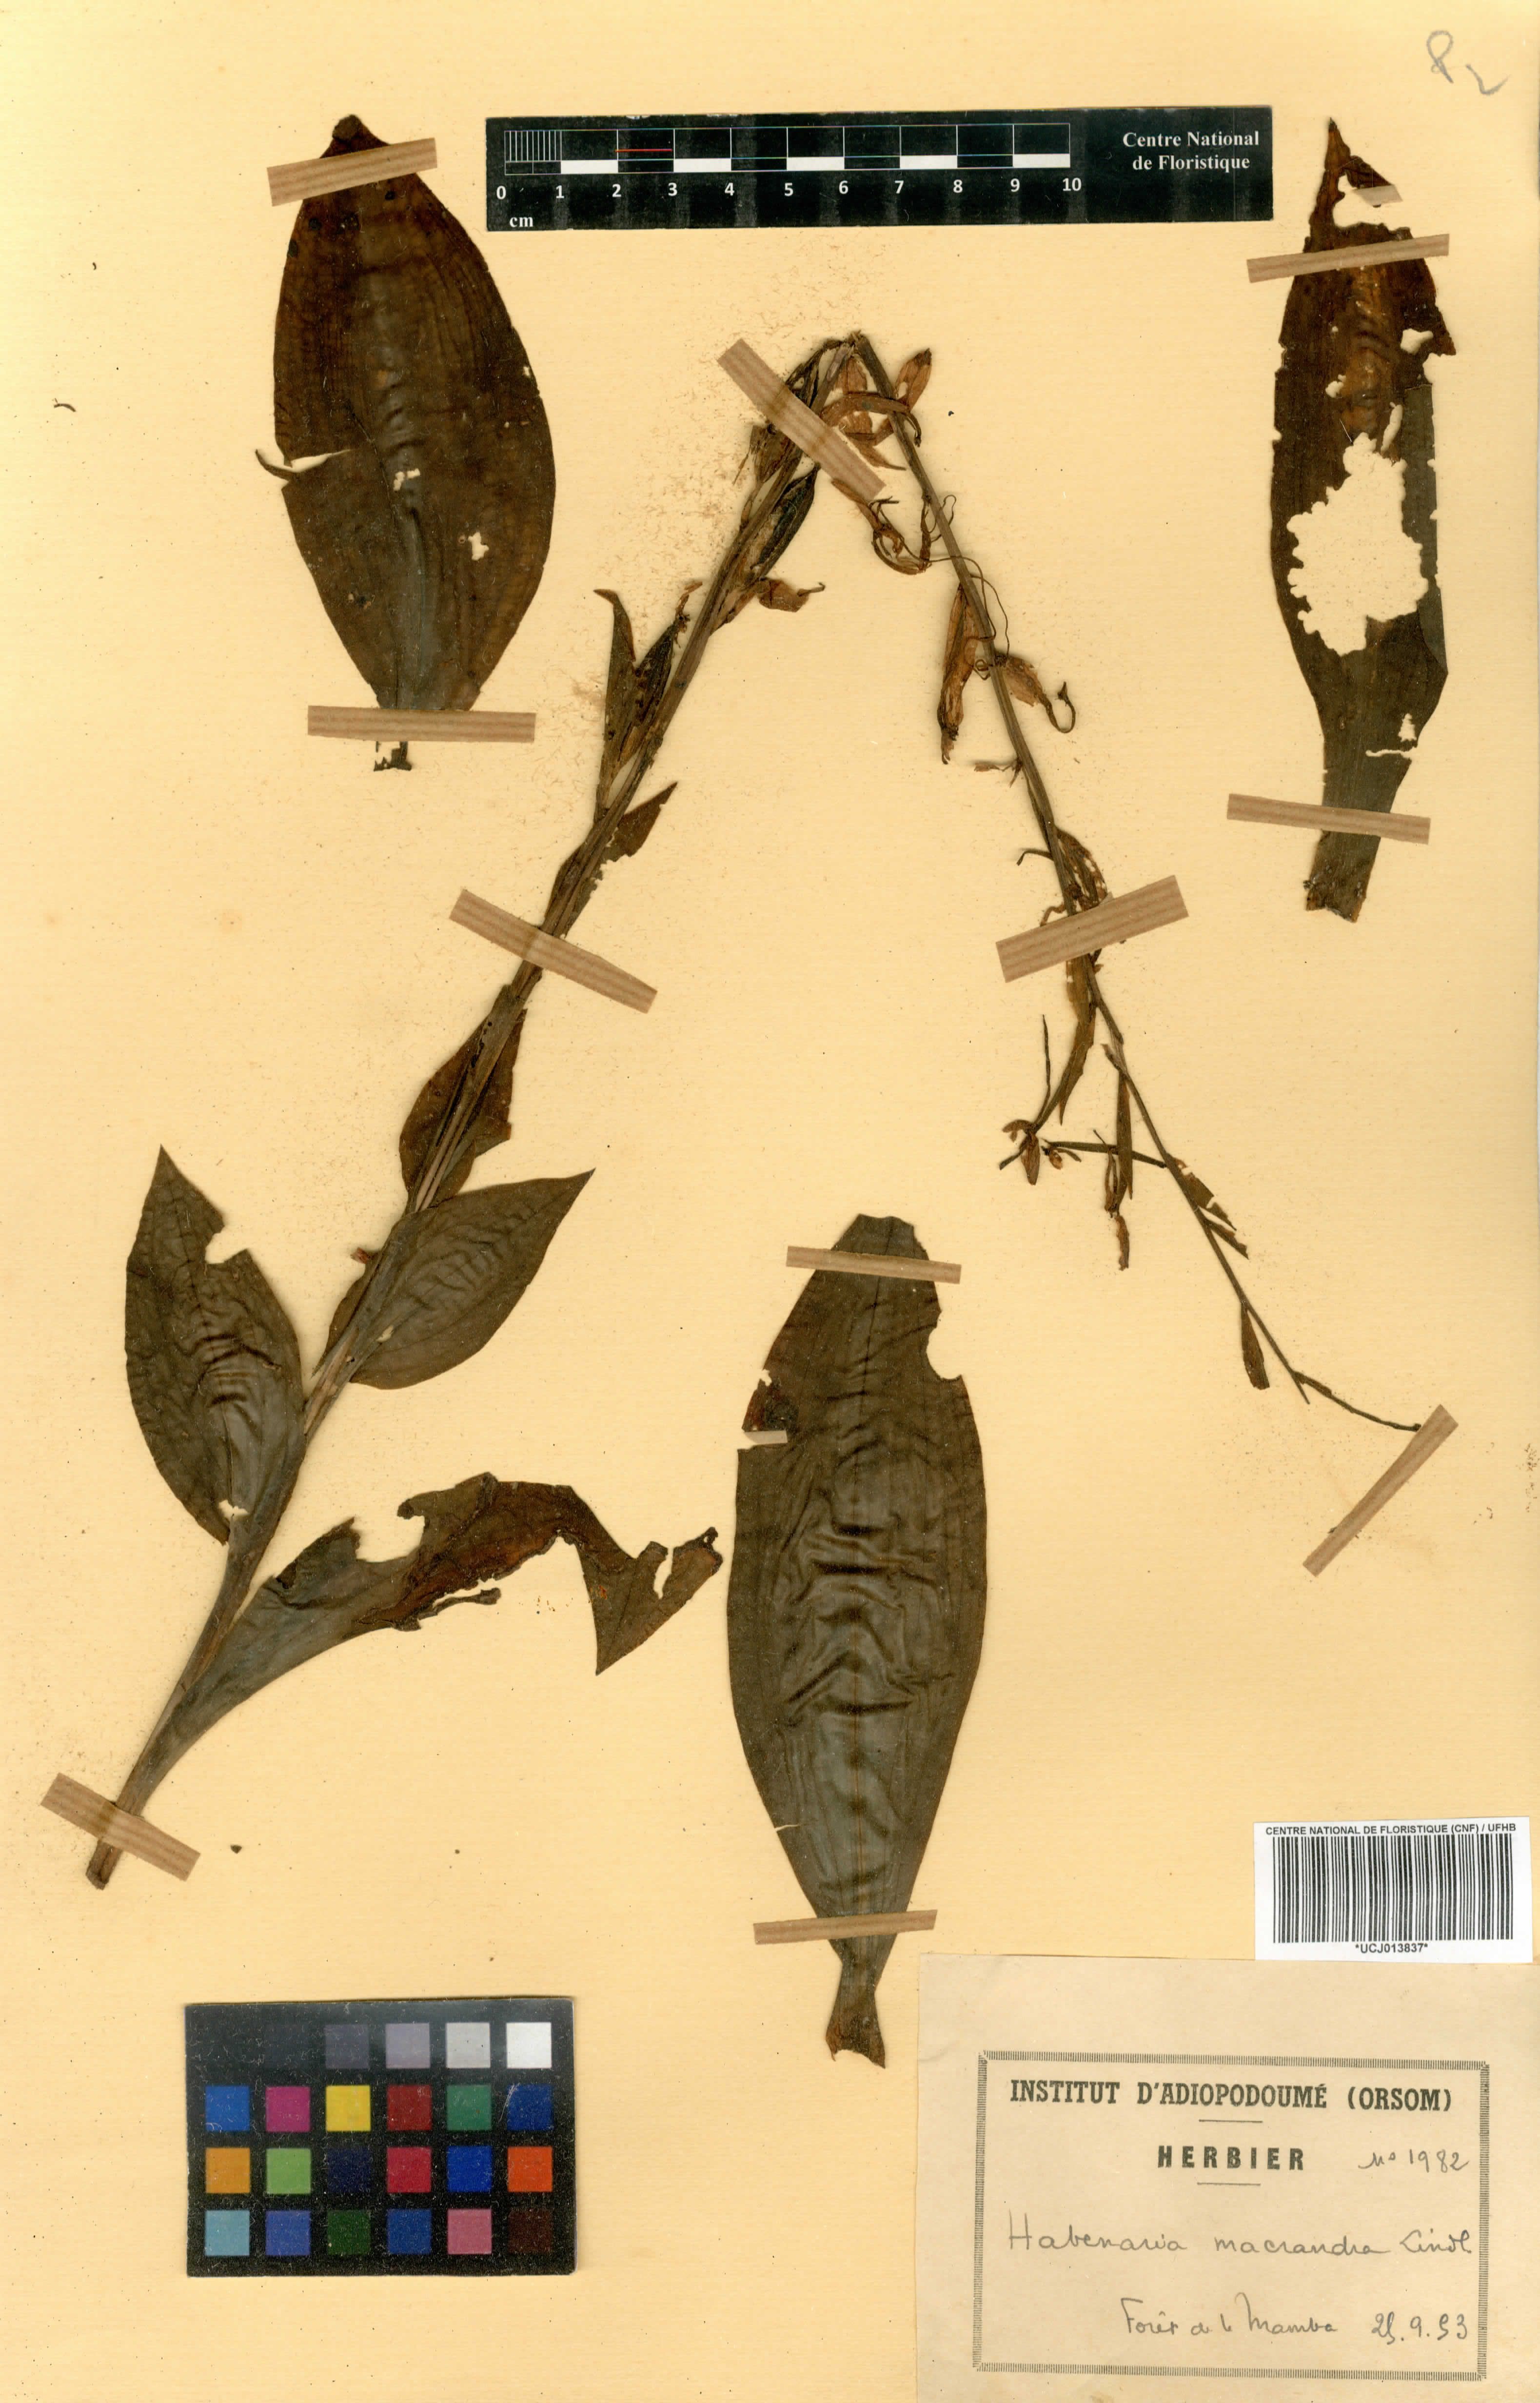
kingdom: Plantae
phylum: Tracheophyta
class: Liliopsida
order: Asparagales
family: Orchidaceae
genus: Habenaria
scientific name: Habenaria macrandra
